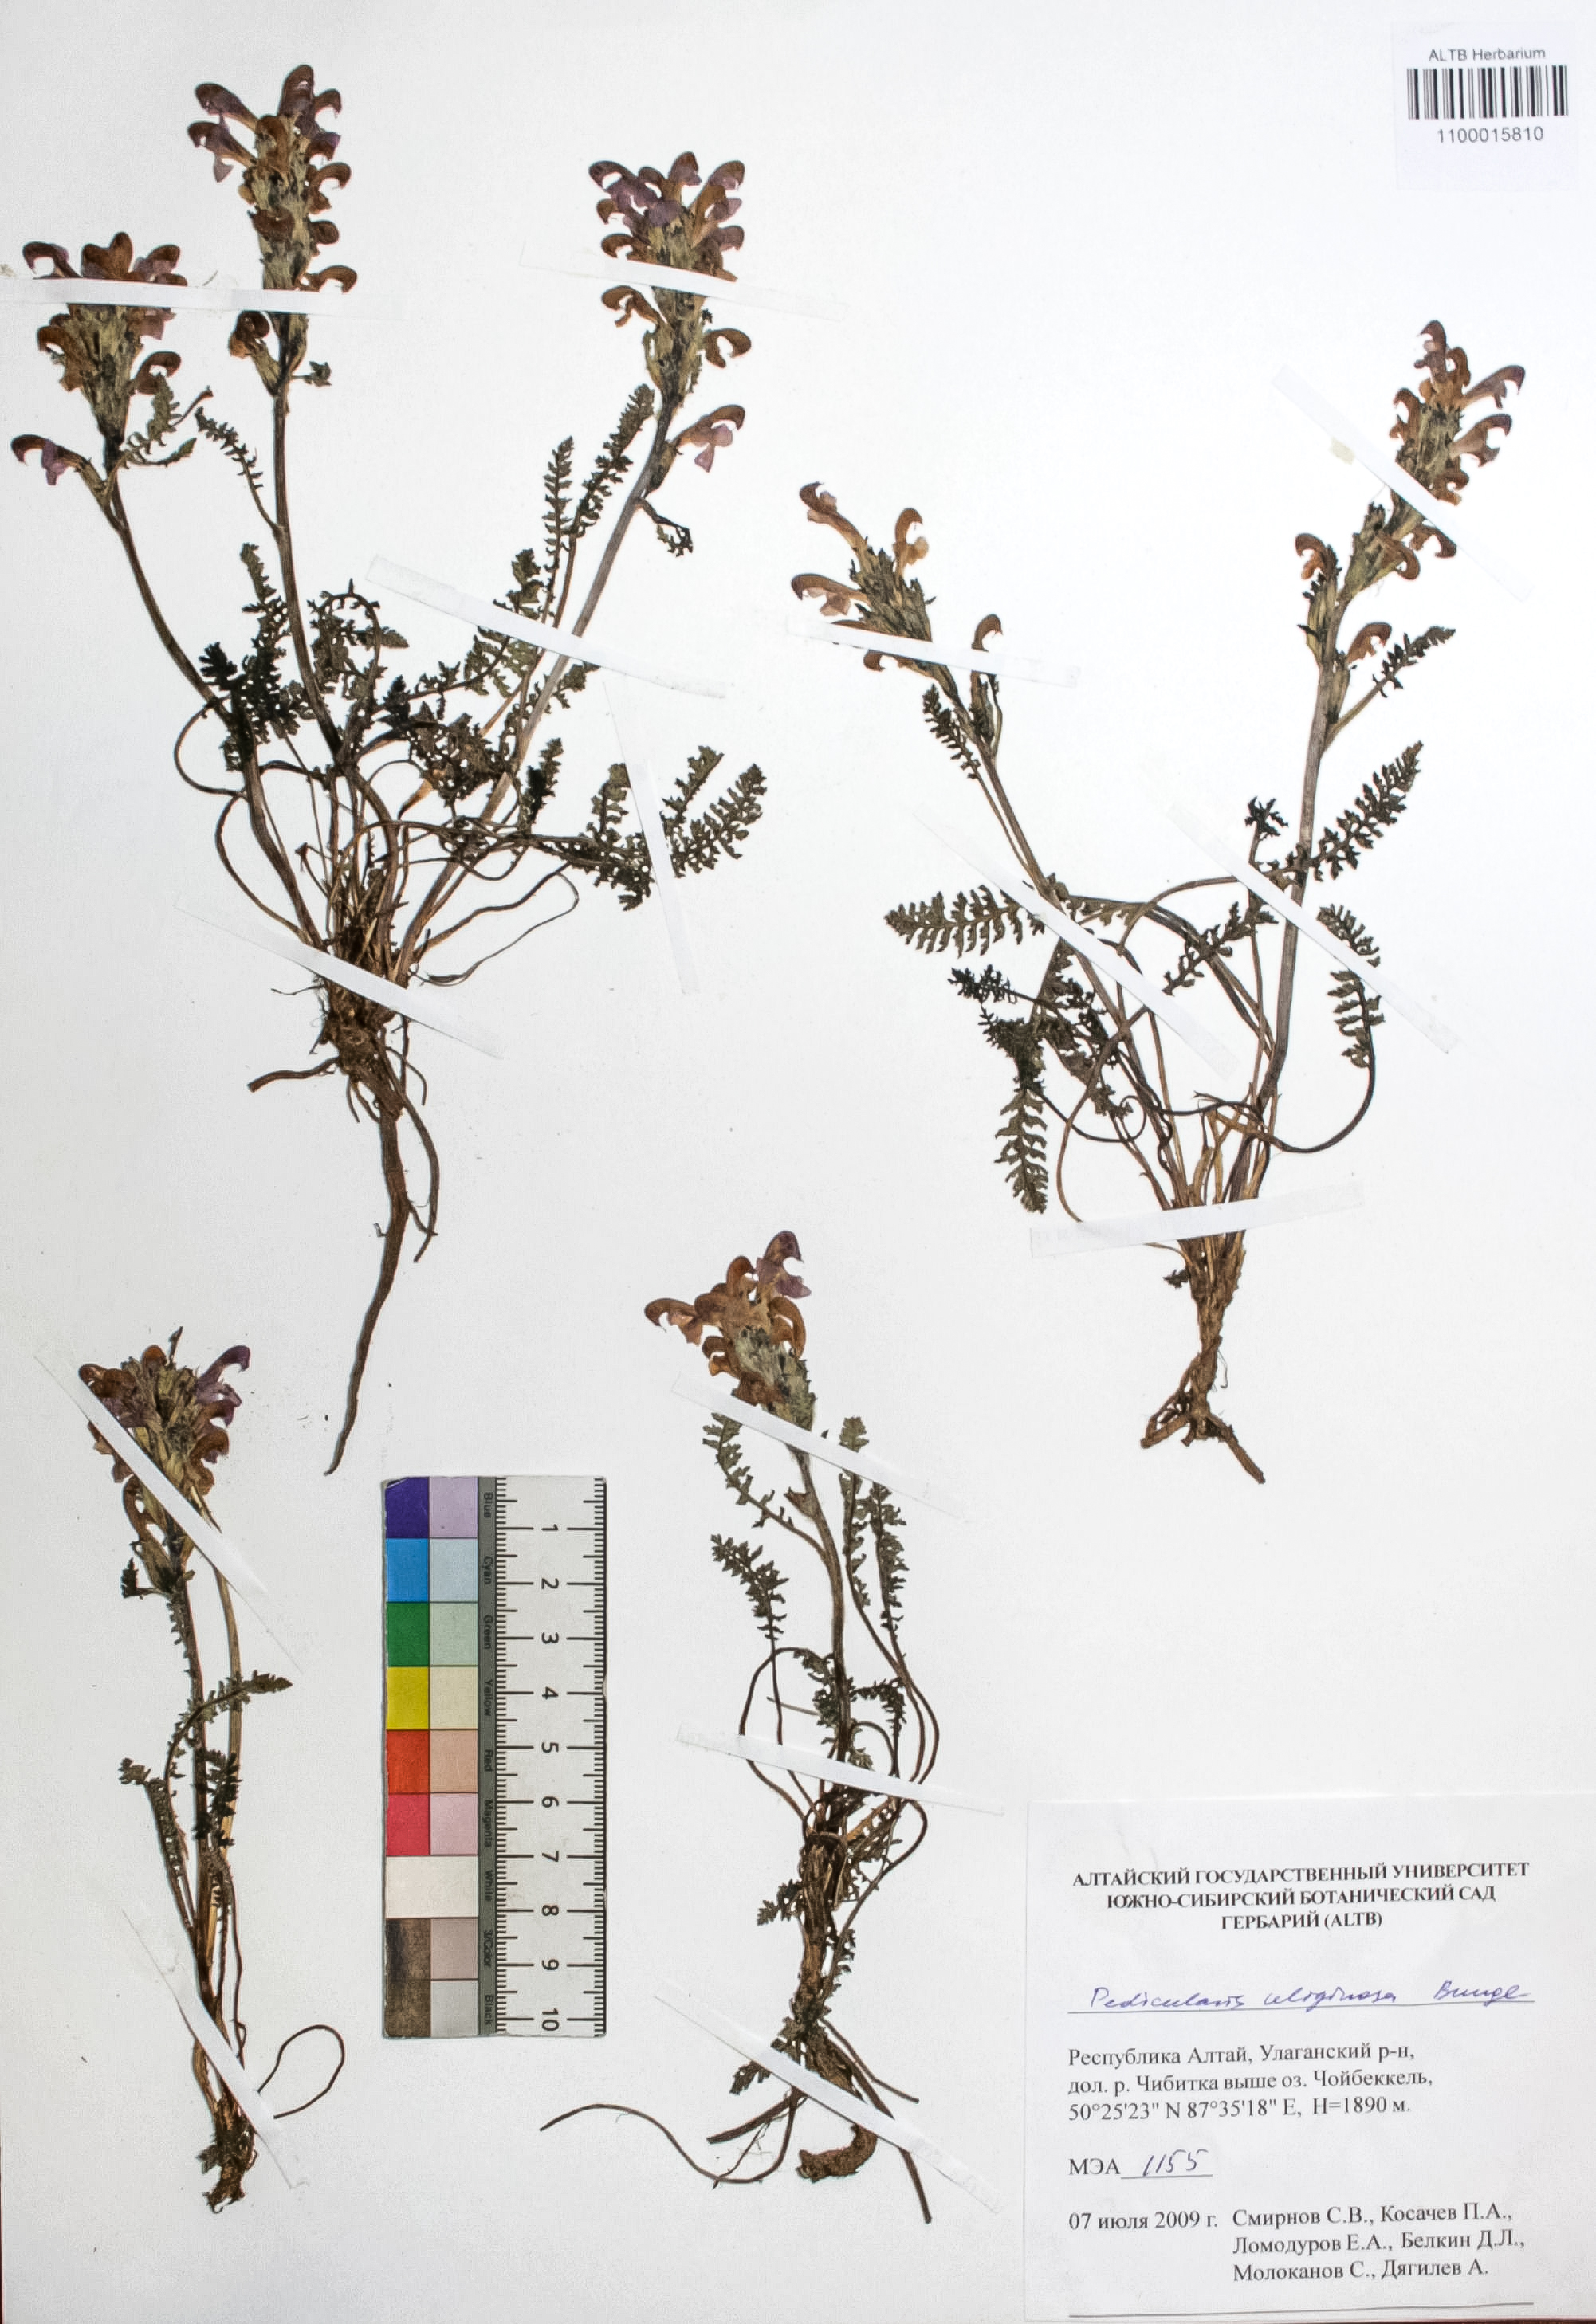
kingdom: Plantae
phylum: Tracheophyta
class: Magnoliopsida
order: Lamiales
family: Orobanchaceae
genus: Pedicularis
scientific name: Pedicularis uliginosa
